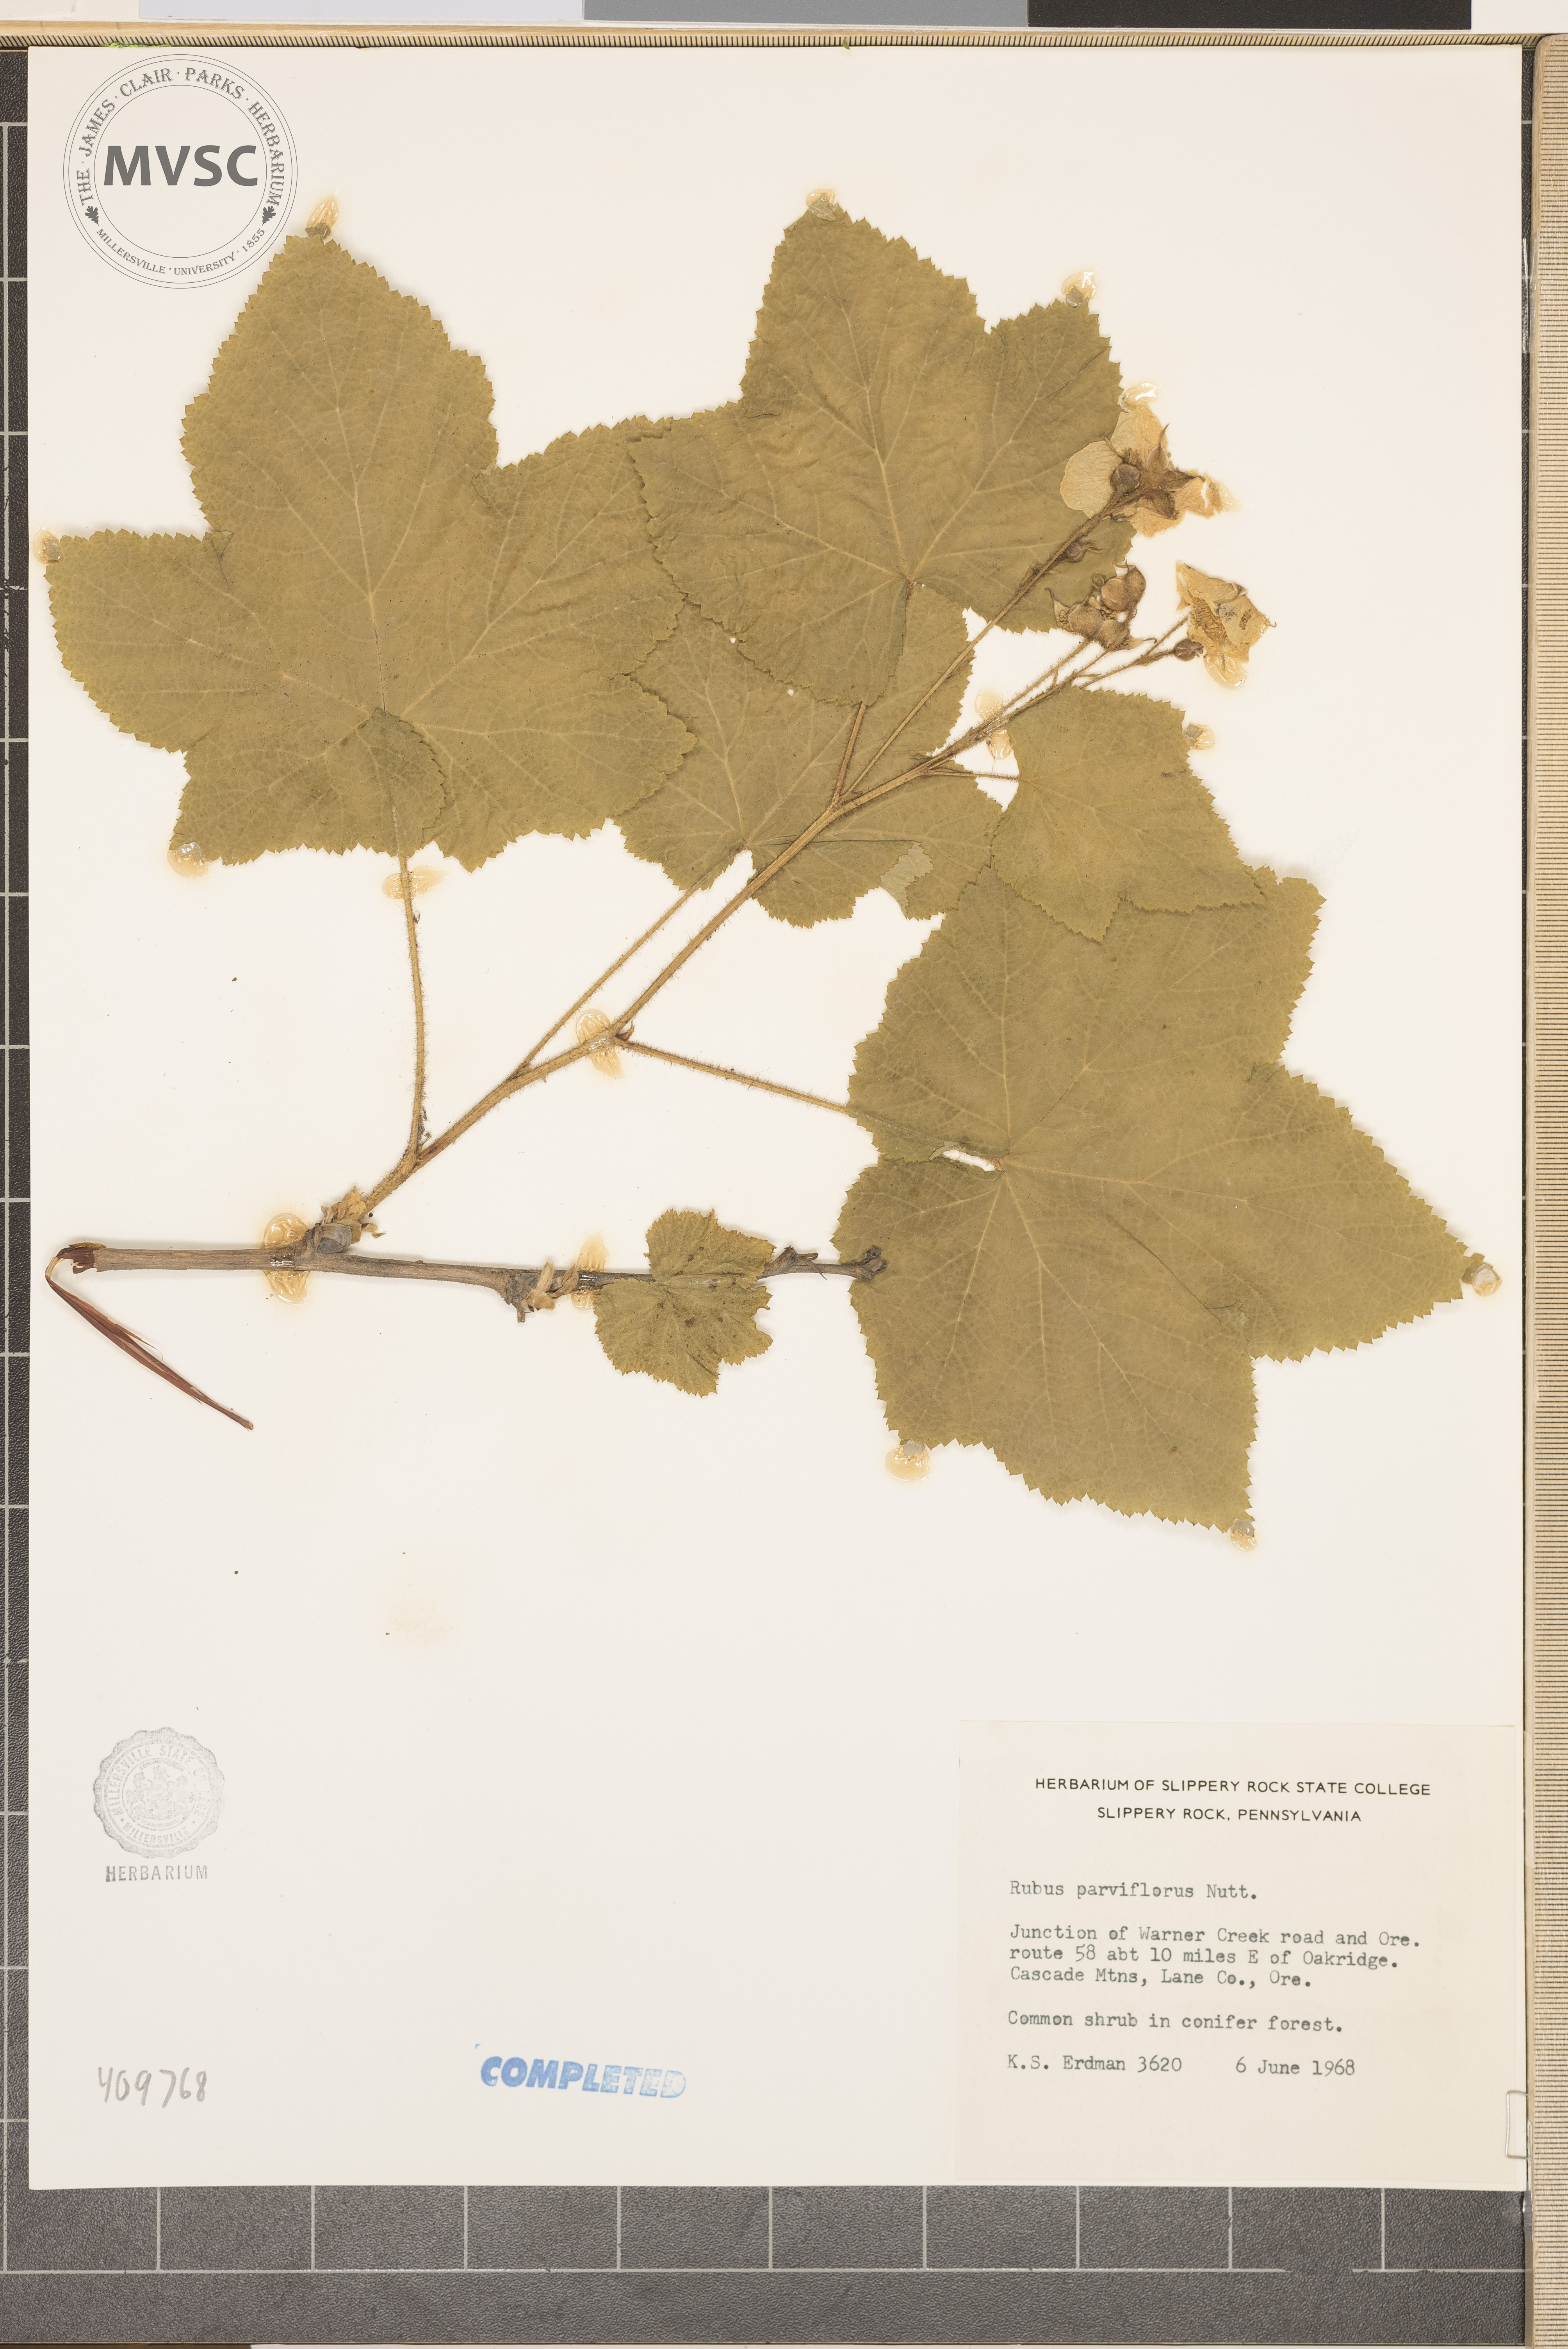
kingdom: Plantae
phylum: Tracheophyta
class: Magnoliopsida
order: Rosales
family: Rosaceae
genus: Rubus
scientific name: Rubus parviflorus
